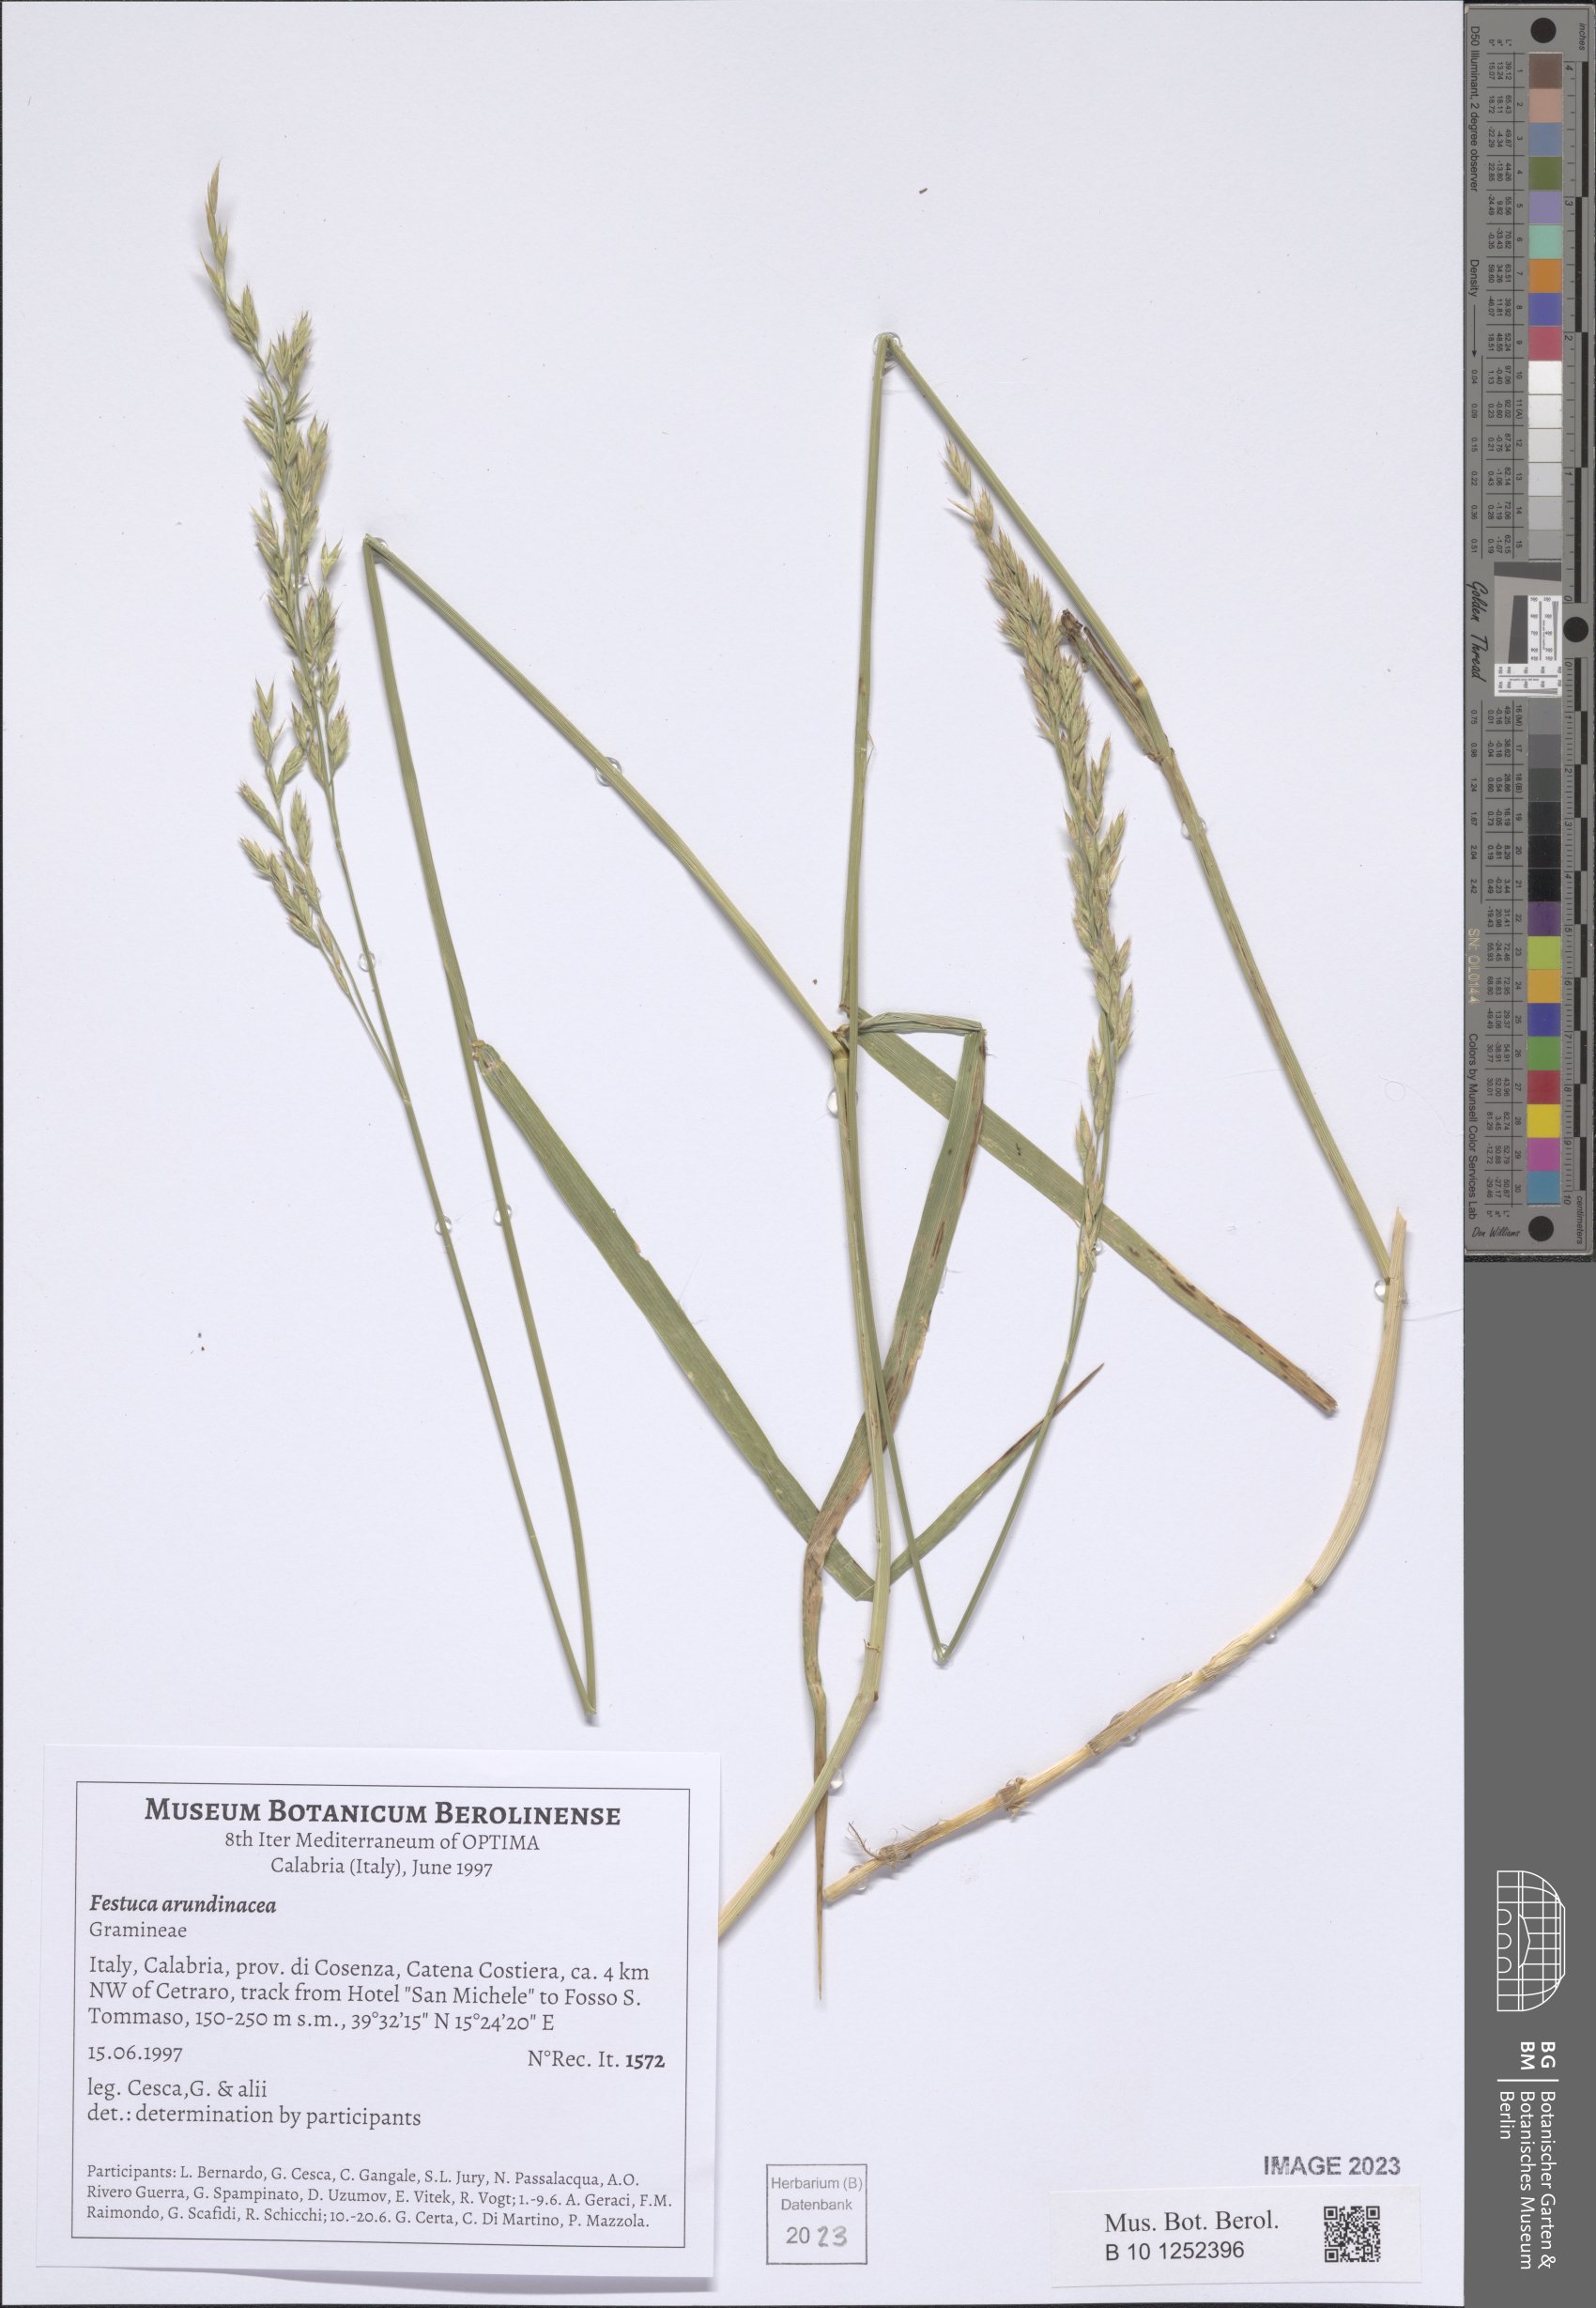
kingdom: Plantae
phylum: Tracheophyta
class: Liliopsida
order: Poales
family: Poaceae
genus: Lolium
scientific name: Lolium arundinaceum
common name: Reed fescue
